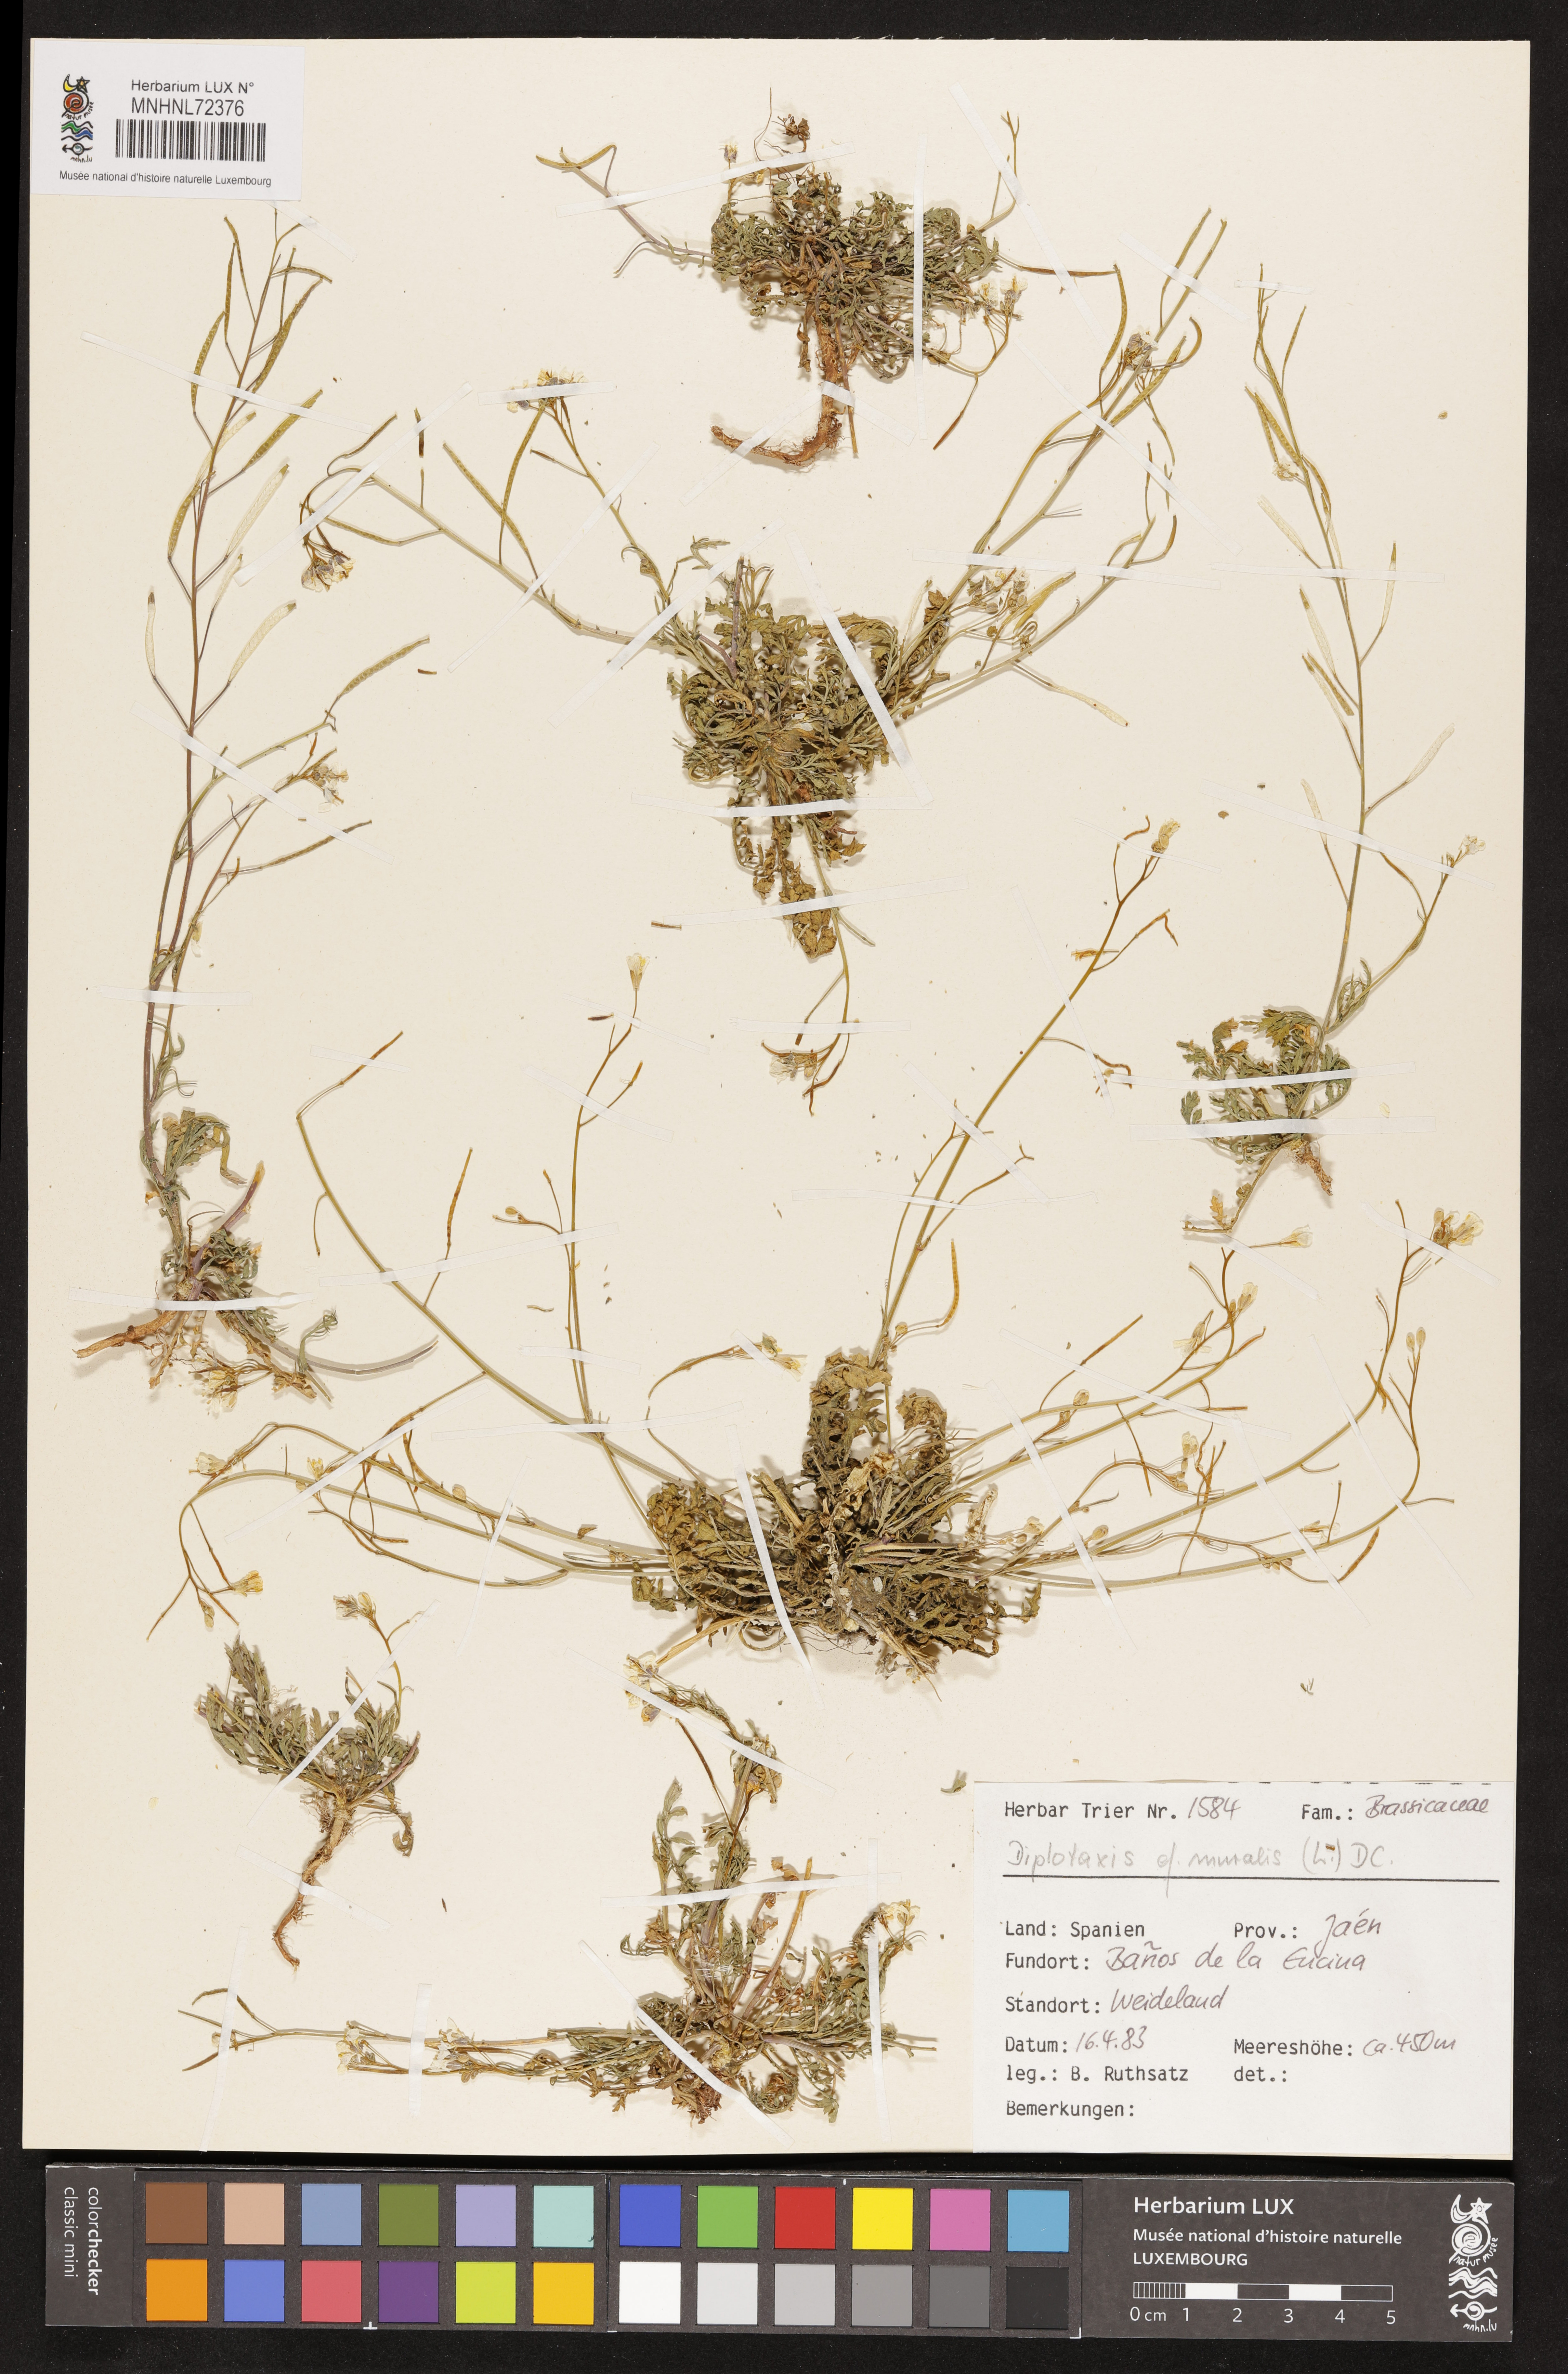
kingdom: Plantae
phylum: Tracheophyta
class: Magnoliopsida
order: Brassicales
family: Brassicaceae
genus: Diplotaxis
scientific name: Diplotaxis muralis
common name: Annual wall-rocket
